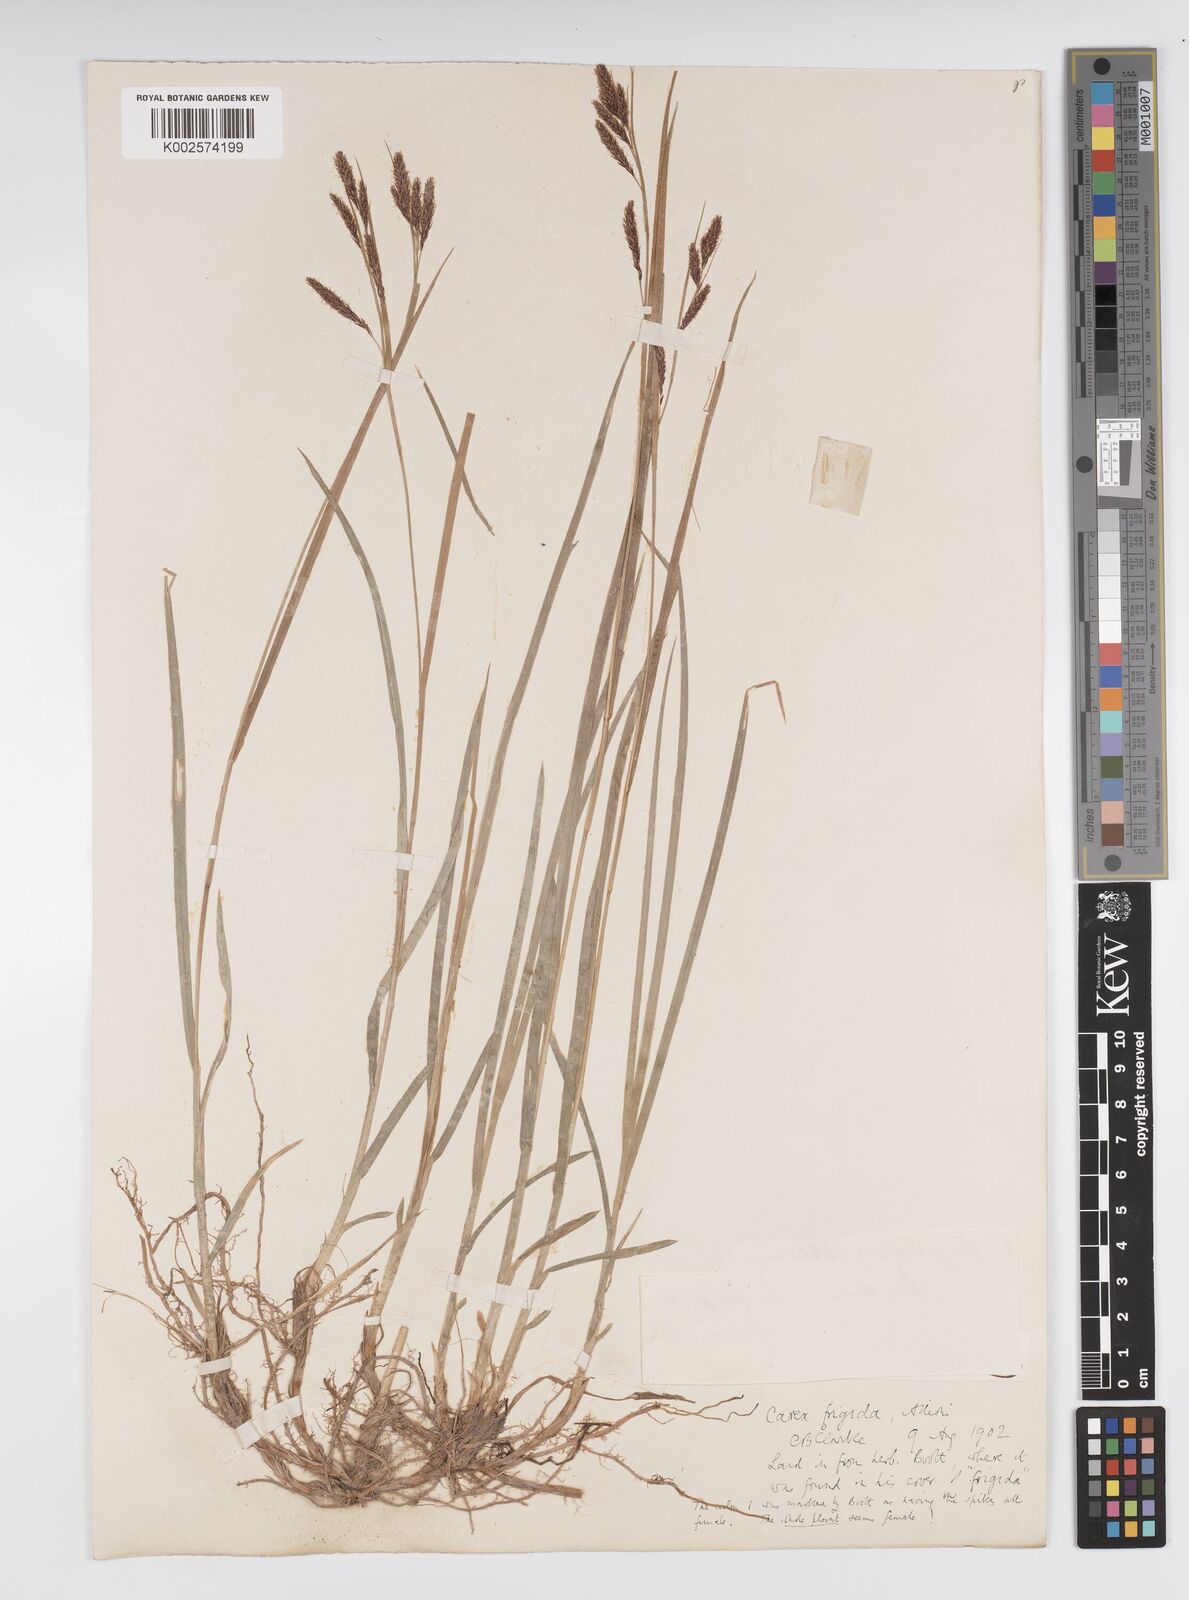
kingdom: Plantae
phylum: Tracheophyta
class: Liliopsida
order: Poales
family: Cyperaceae
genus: Carex
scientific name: Carex frigida
